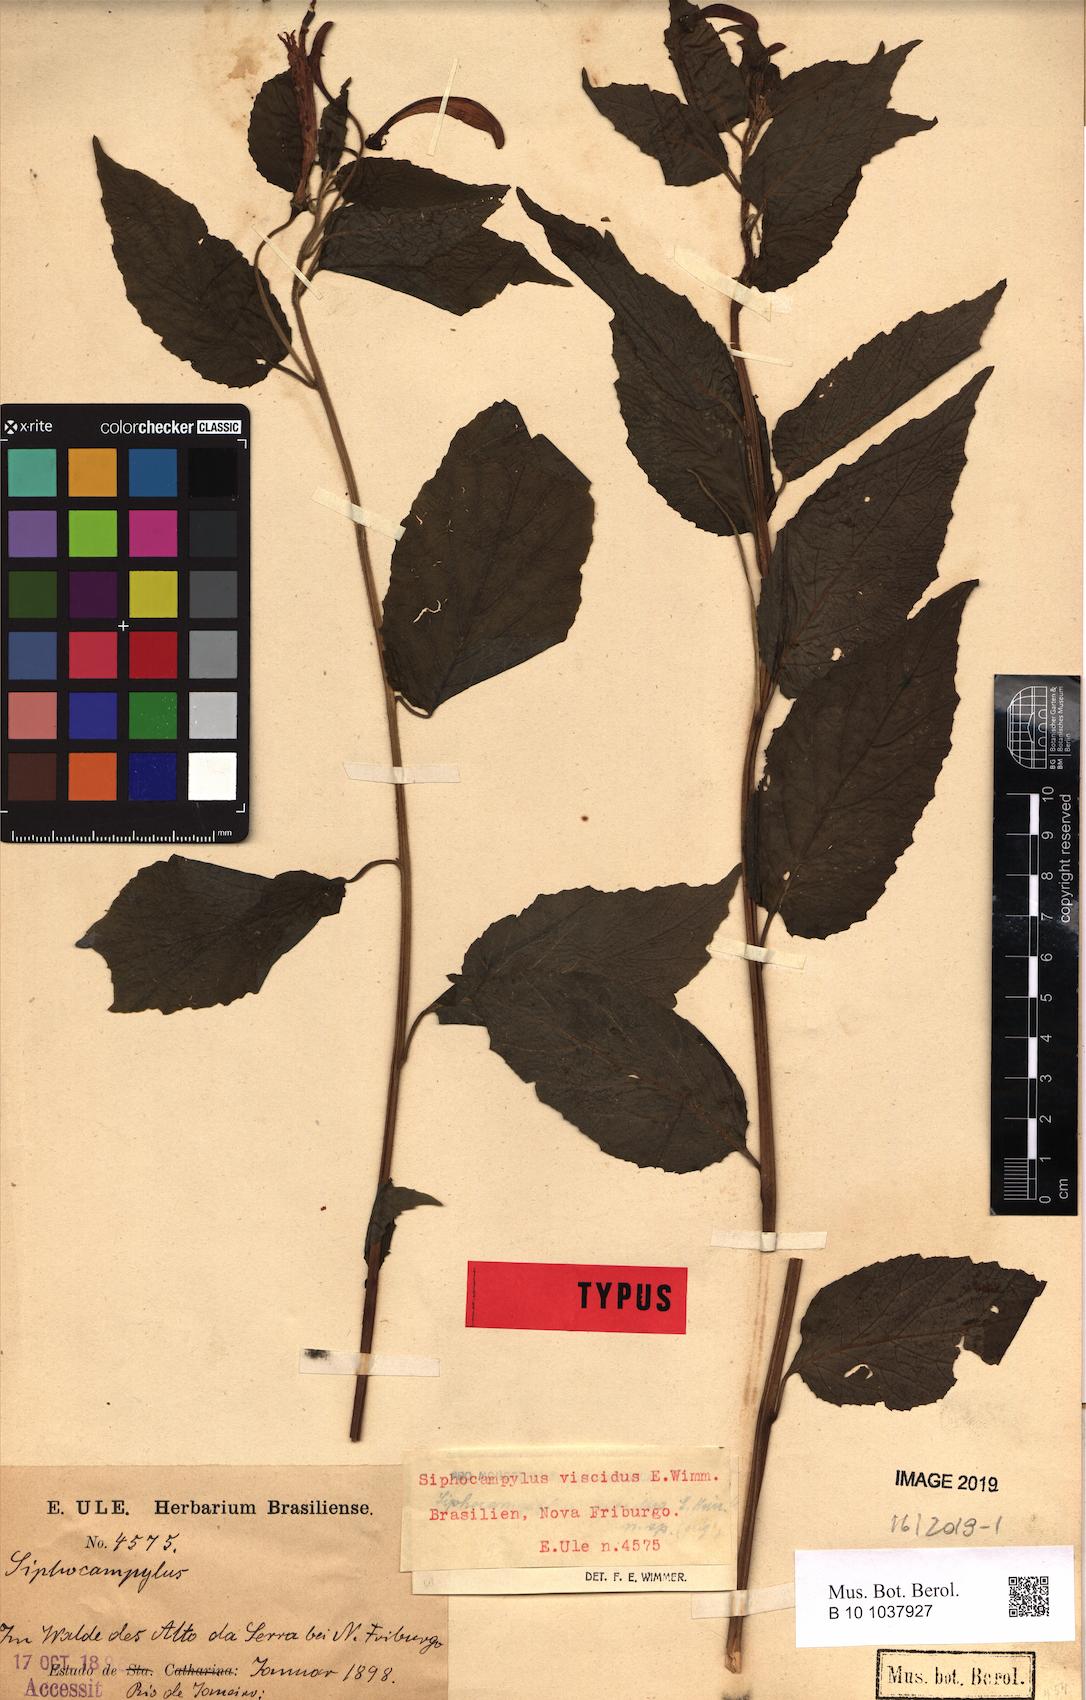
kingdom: Plantae
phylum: Tracheophyta
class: Magnoliopsida
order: Asterales
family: Campanulaceae
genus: Siphocampylus
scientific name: Siphocampylus viscidus
